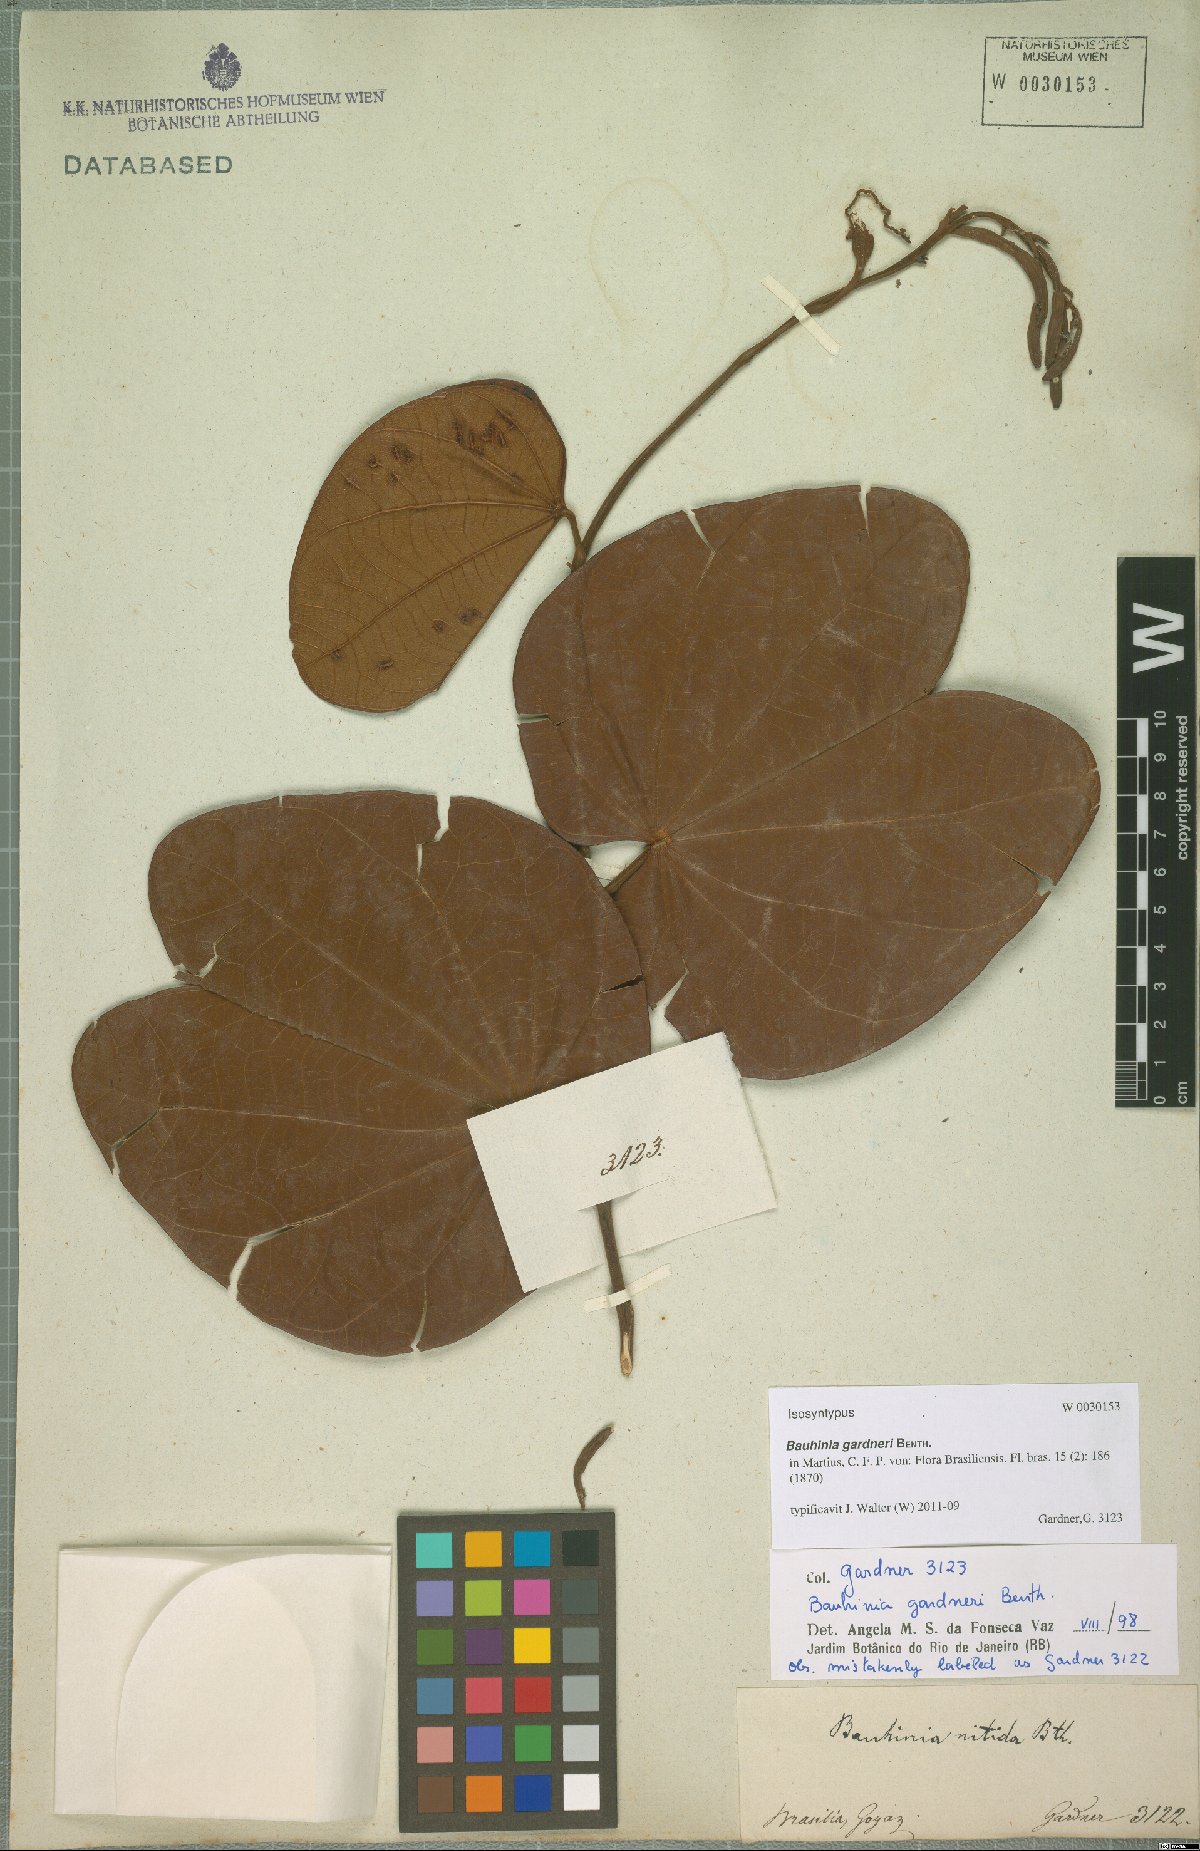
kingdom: Plantae
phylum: Tracheophyta
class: Magnoliopsida
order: Fabales
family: Fabaceae
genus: Bauhinia
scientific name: Bauhinia gardneri
